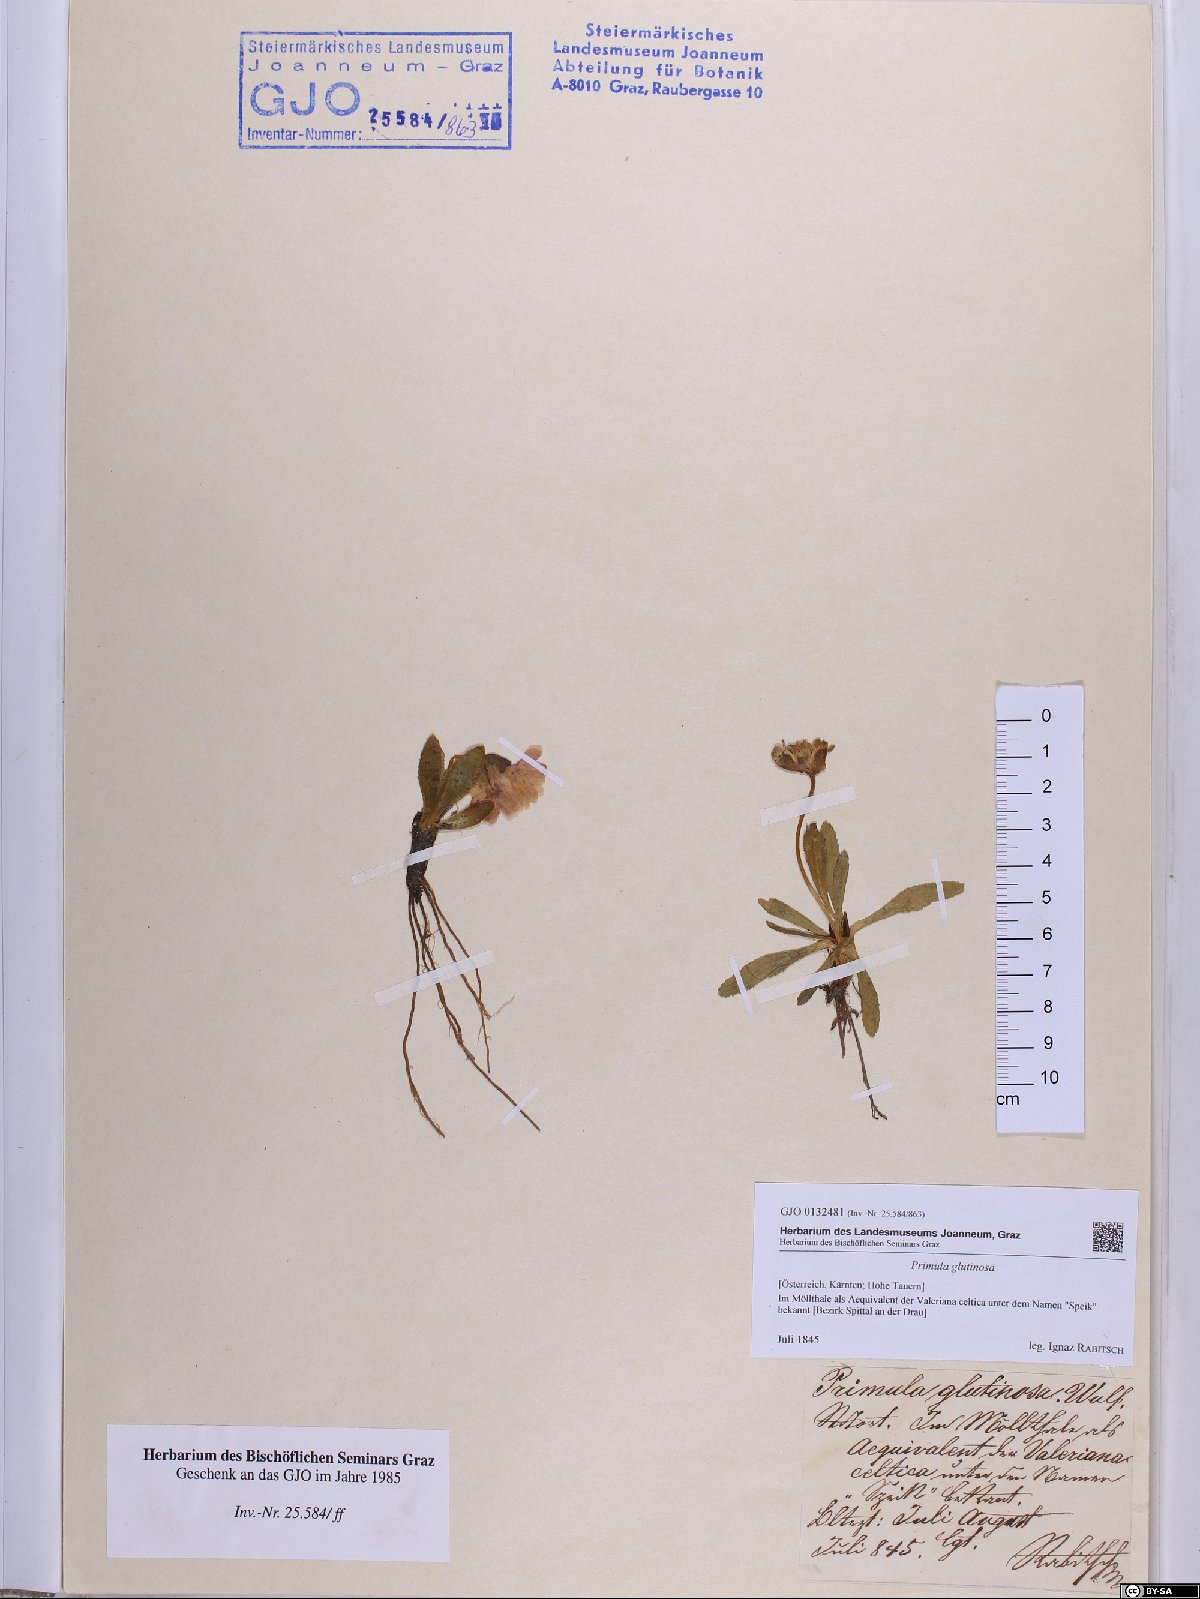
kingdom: Plantae
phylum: Tracheophyta
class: Magnoliopsida
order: Ericales
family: Primulaceae
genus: Primula
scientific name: Primula glutinosa
